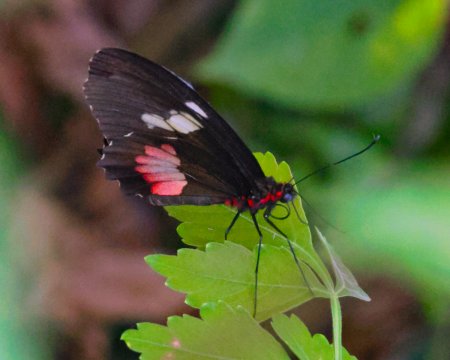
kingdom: Animalia
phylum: Arthropoda
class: Insecta
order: Lepidoptera
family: Papilionidae
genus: Parides
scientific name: Parides erithalion
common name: Variable Cattleheart
